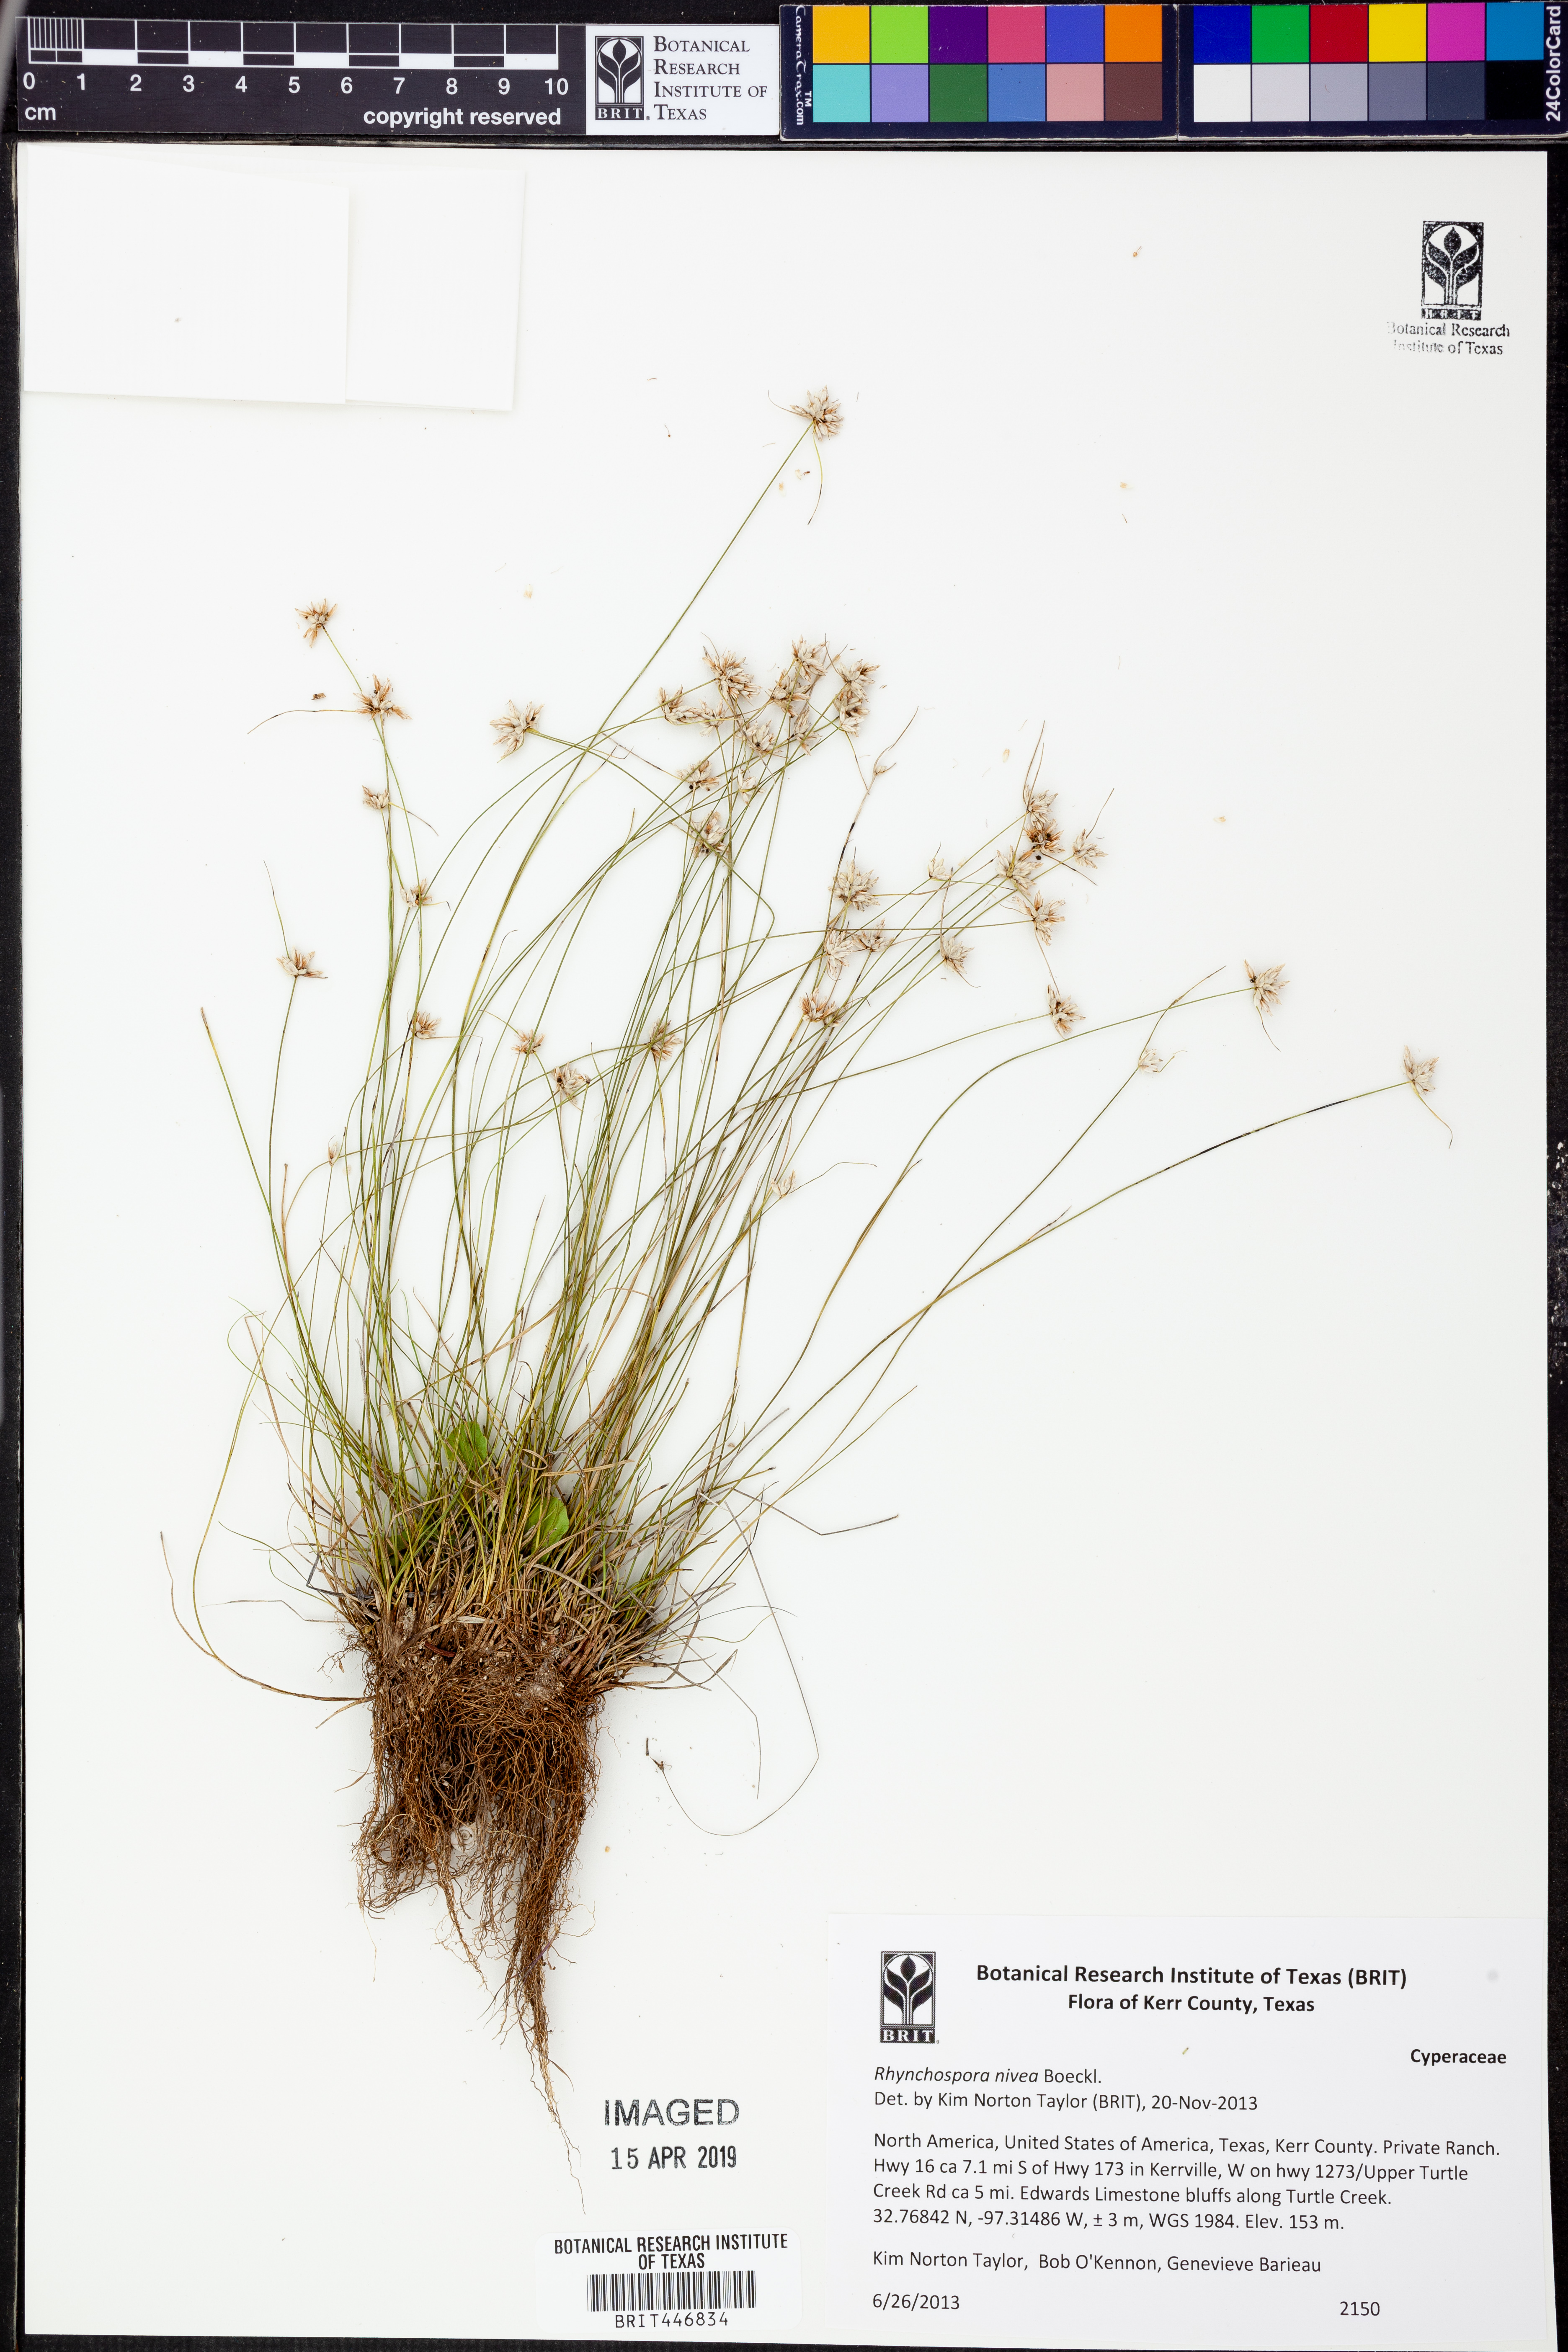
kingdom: Plantae
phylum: Tracheophyta
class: Liliopsida
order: Poales
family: Cyperaceae
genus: Rhynchospora
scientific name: Rhynchospora nivea
